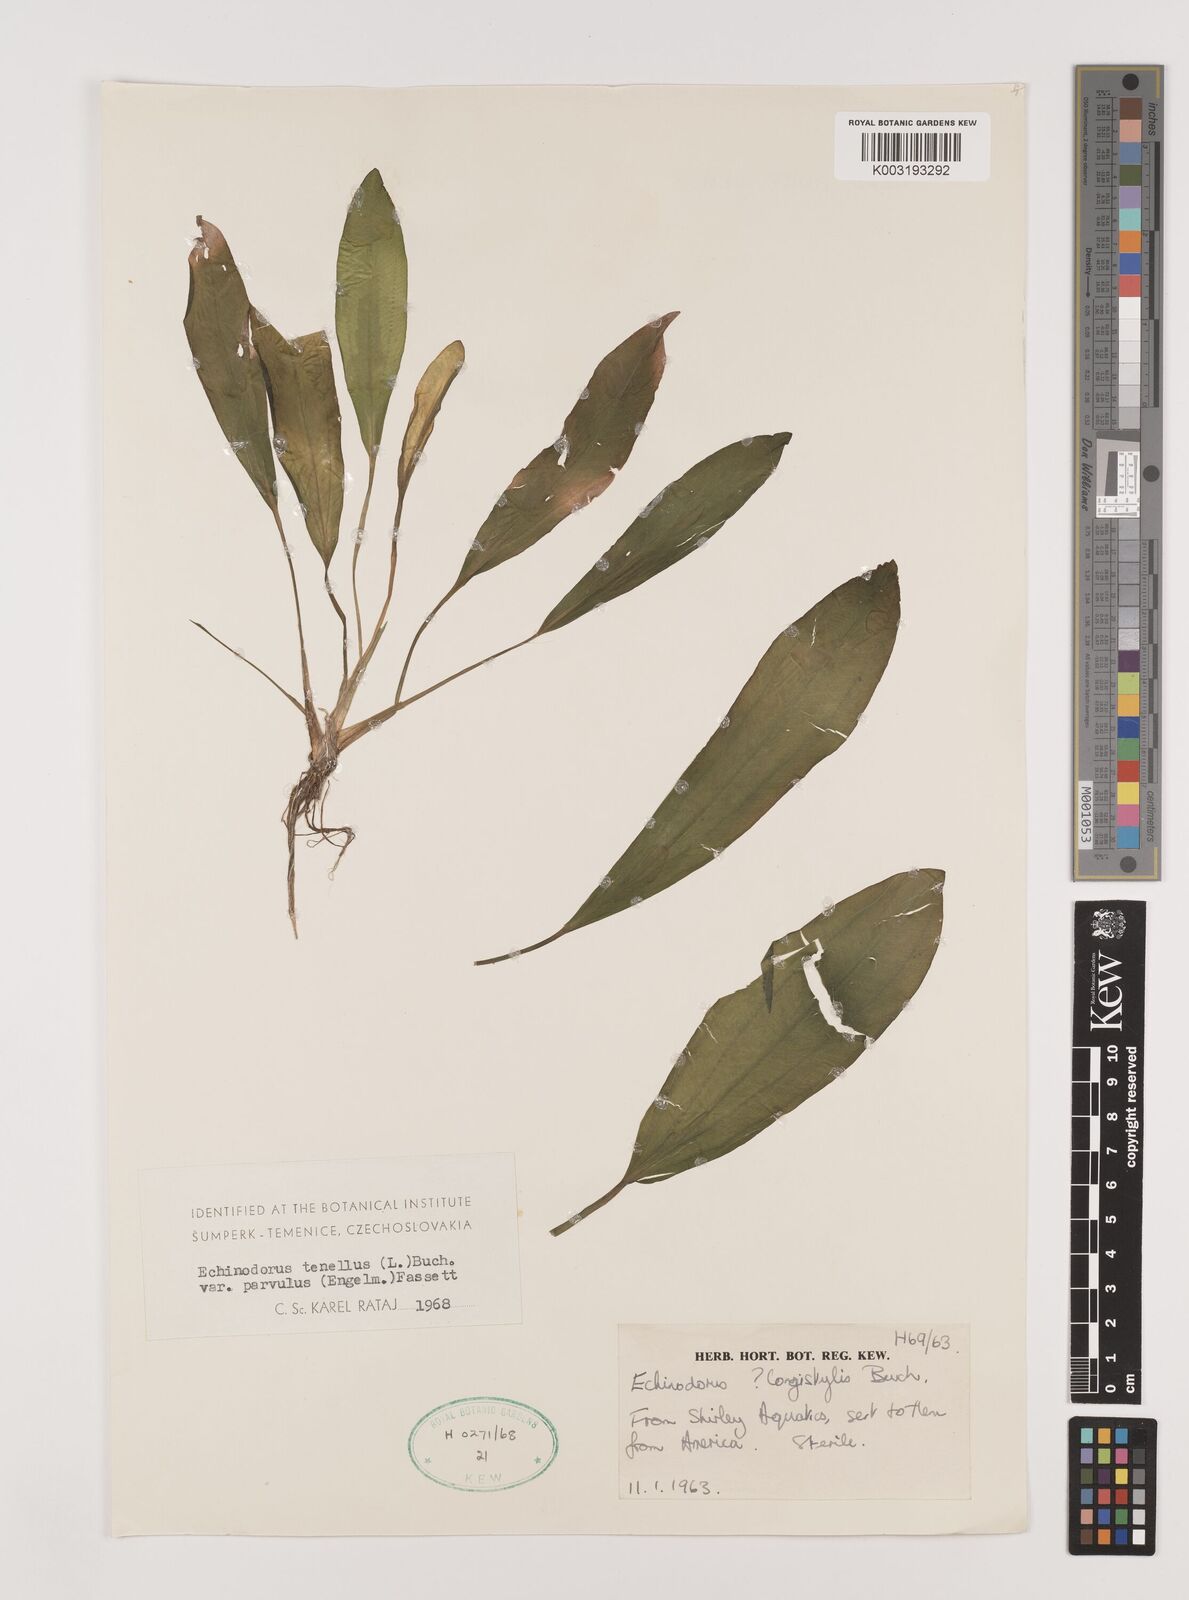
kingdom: Plantae
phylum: Tracheophyta
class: Liliopsida
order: Alismatales
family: Alismataceae
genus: Helanthium
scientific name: Helanthium bolivianum
